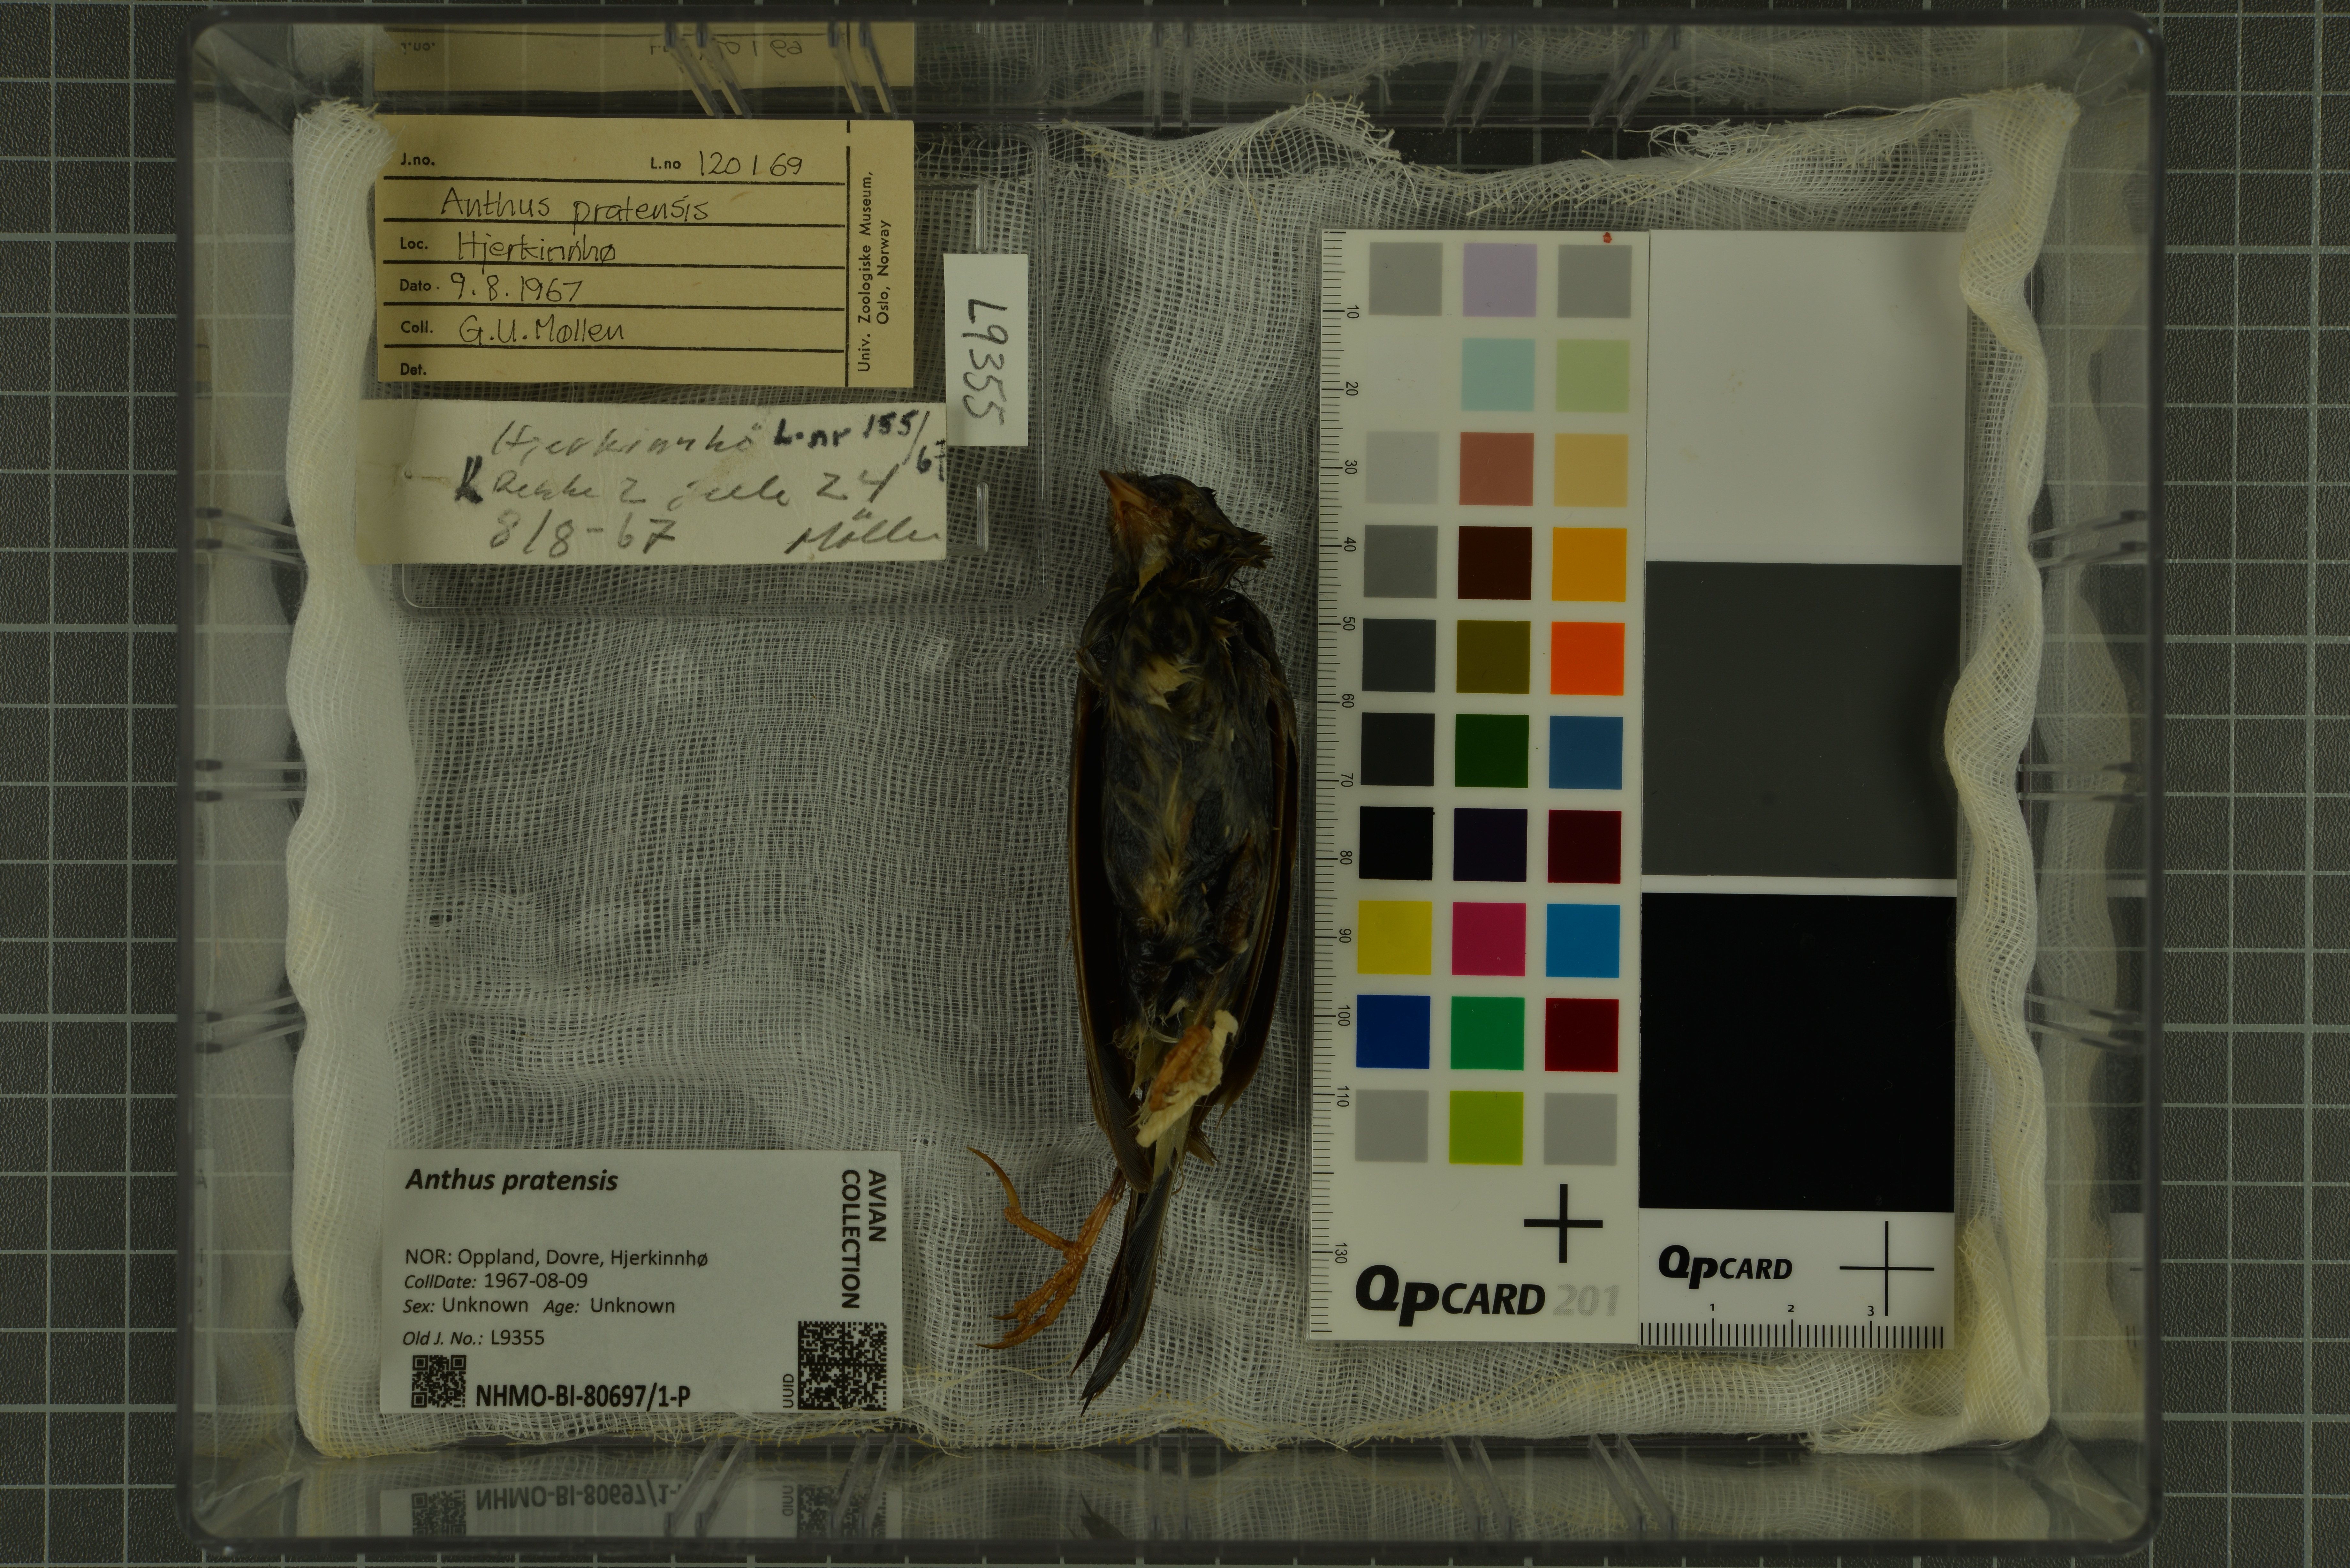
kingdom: Animalia
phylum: Chordata
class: Aves
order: Passeriformes
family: Motacillidae
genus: Anthus
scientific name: Anthus pratensis
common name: Meadow pipit
